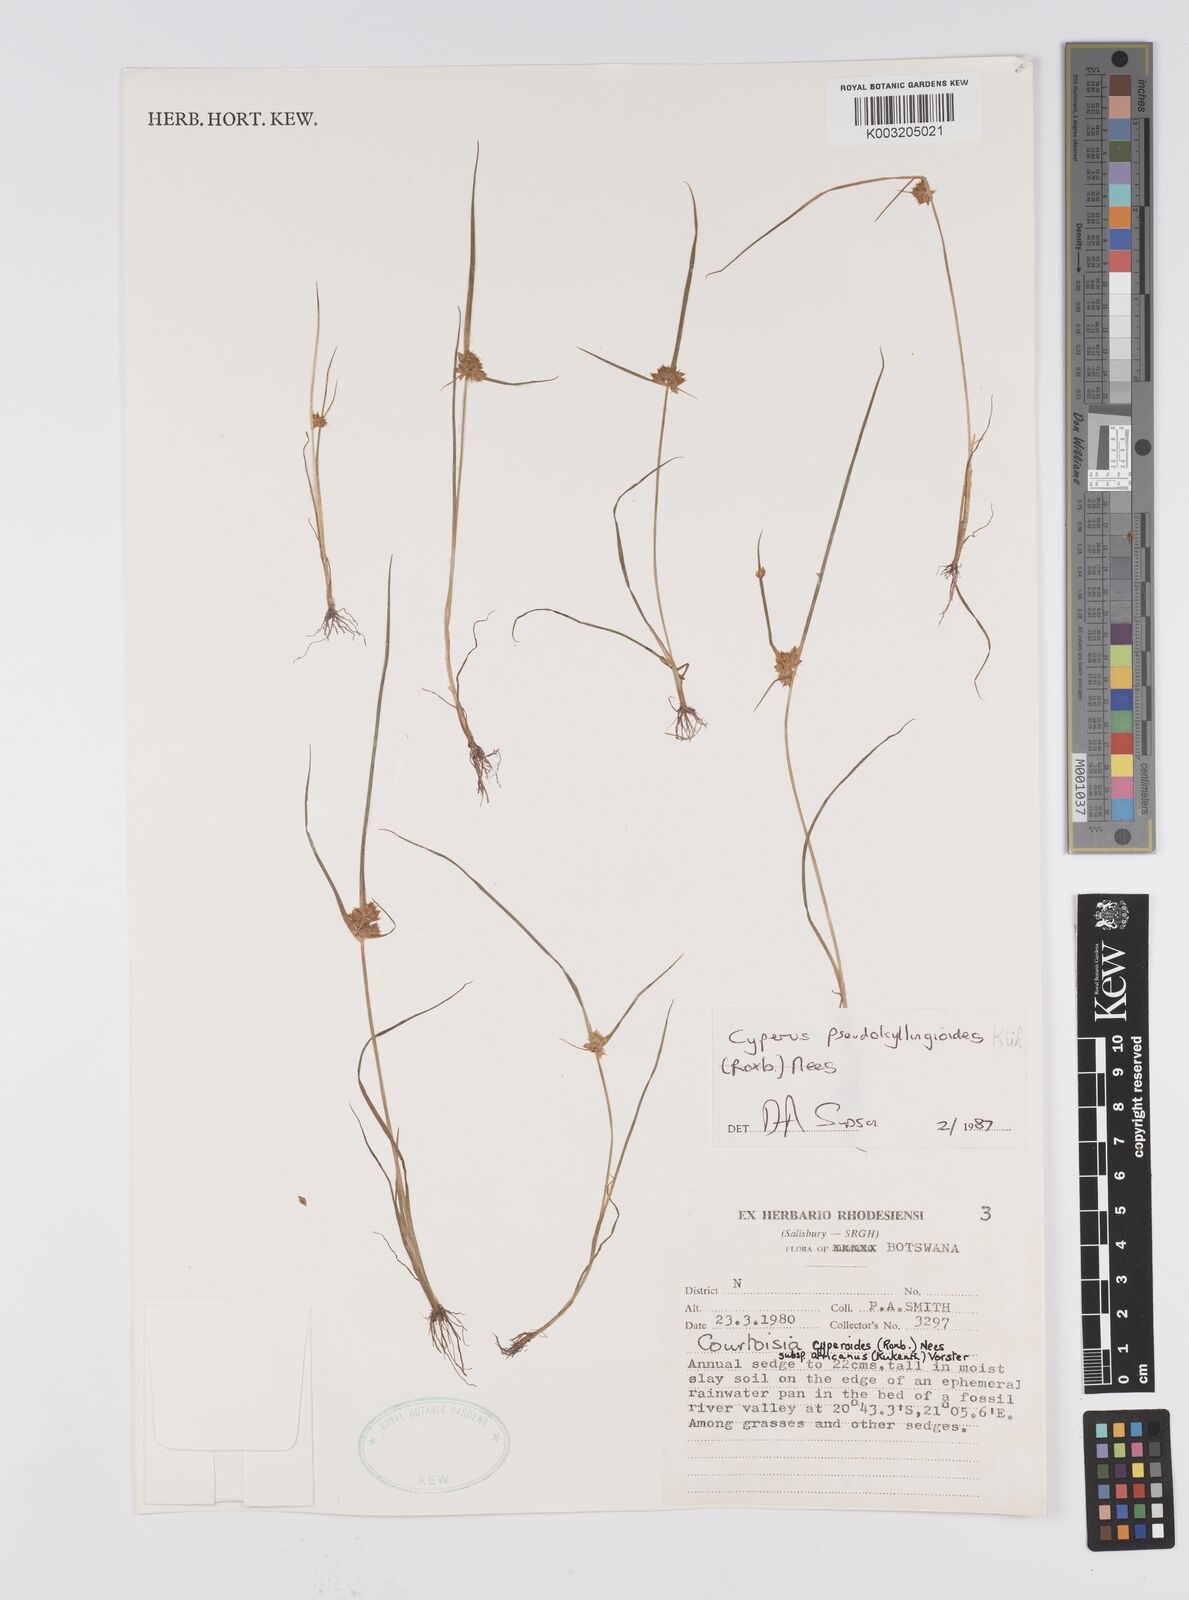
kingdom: Plantae
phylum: Tracheophyta
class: Liliopsida
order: Poales
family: Cyperaceae
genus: Cyperus
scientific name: Cyperus cyperoides
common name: Pacific island flat sedge
